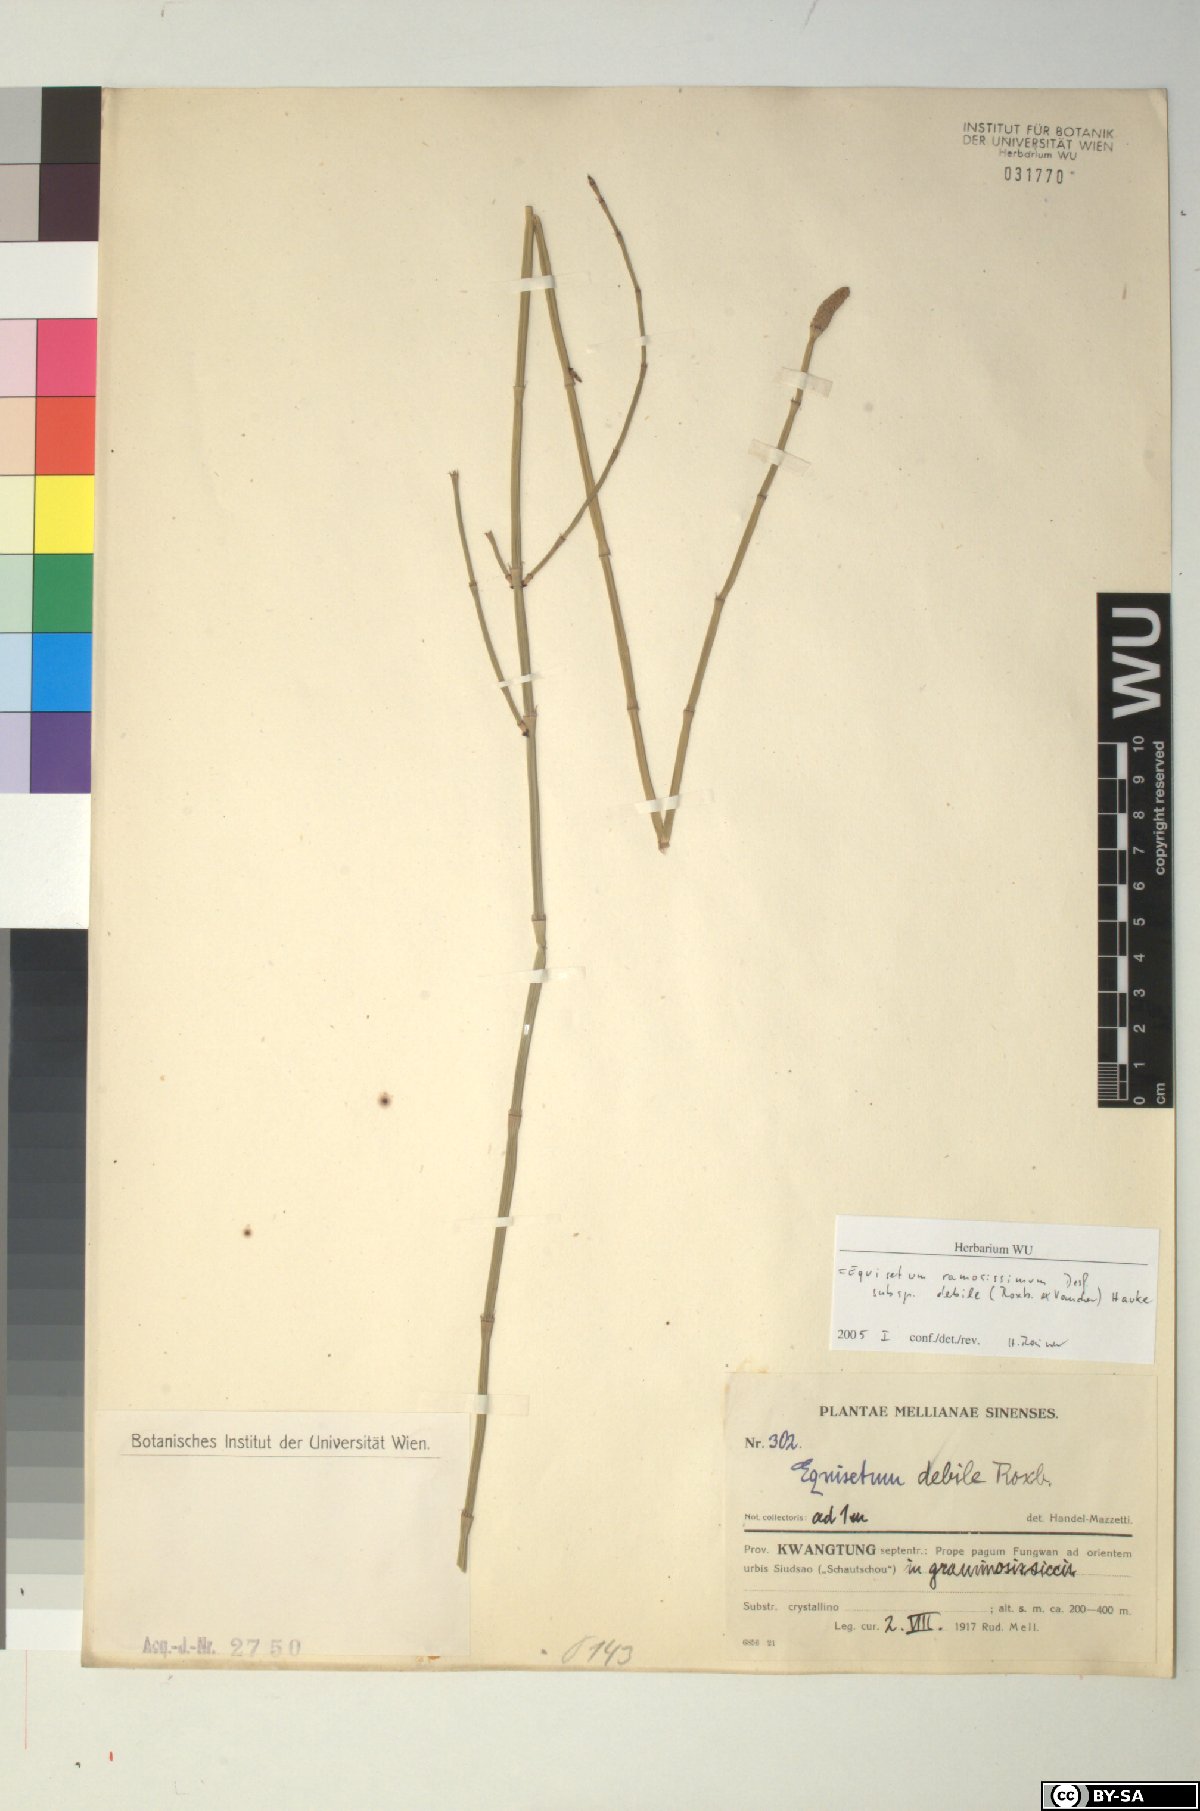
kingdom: Plantae
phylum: Tracheophyta
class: Polypodiopsida
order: Equisetales
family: Equisetaceae
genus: Equisetum
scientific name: Equisetum ramosissimum
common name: Branched horsetail
